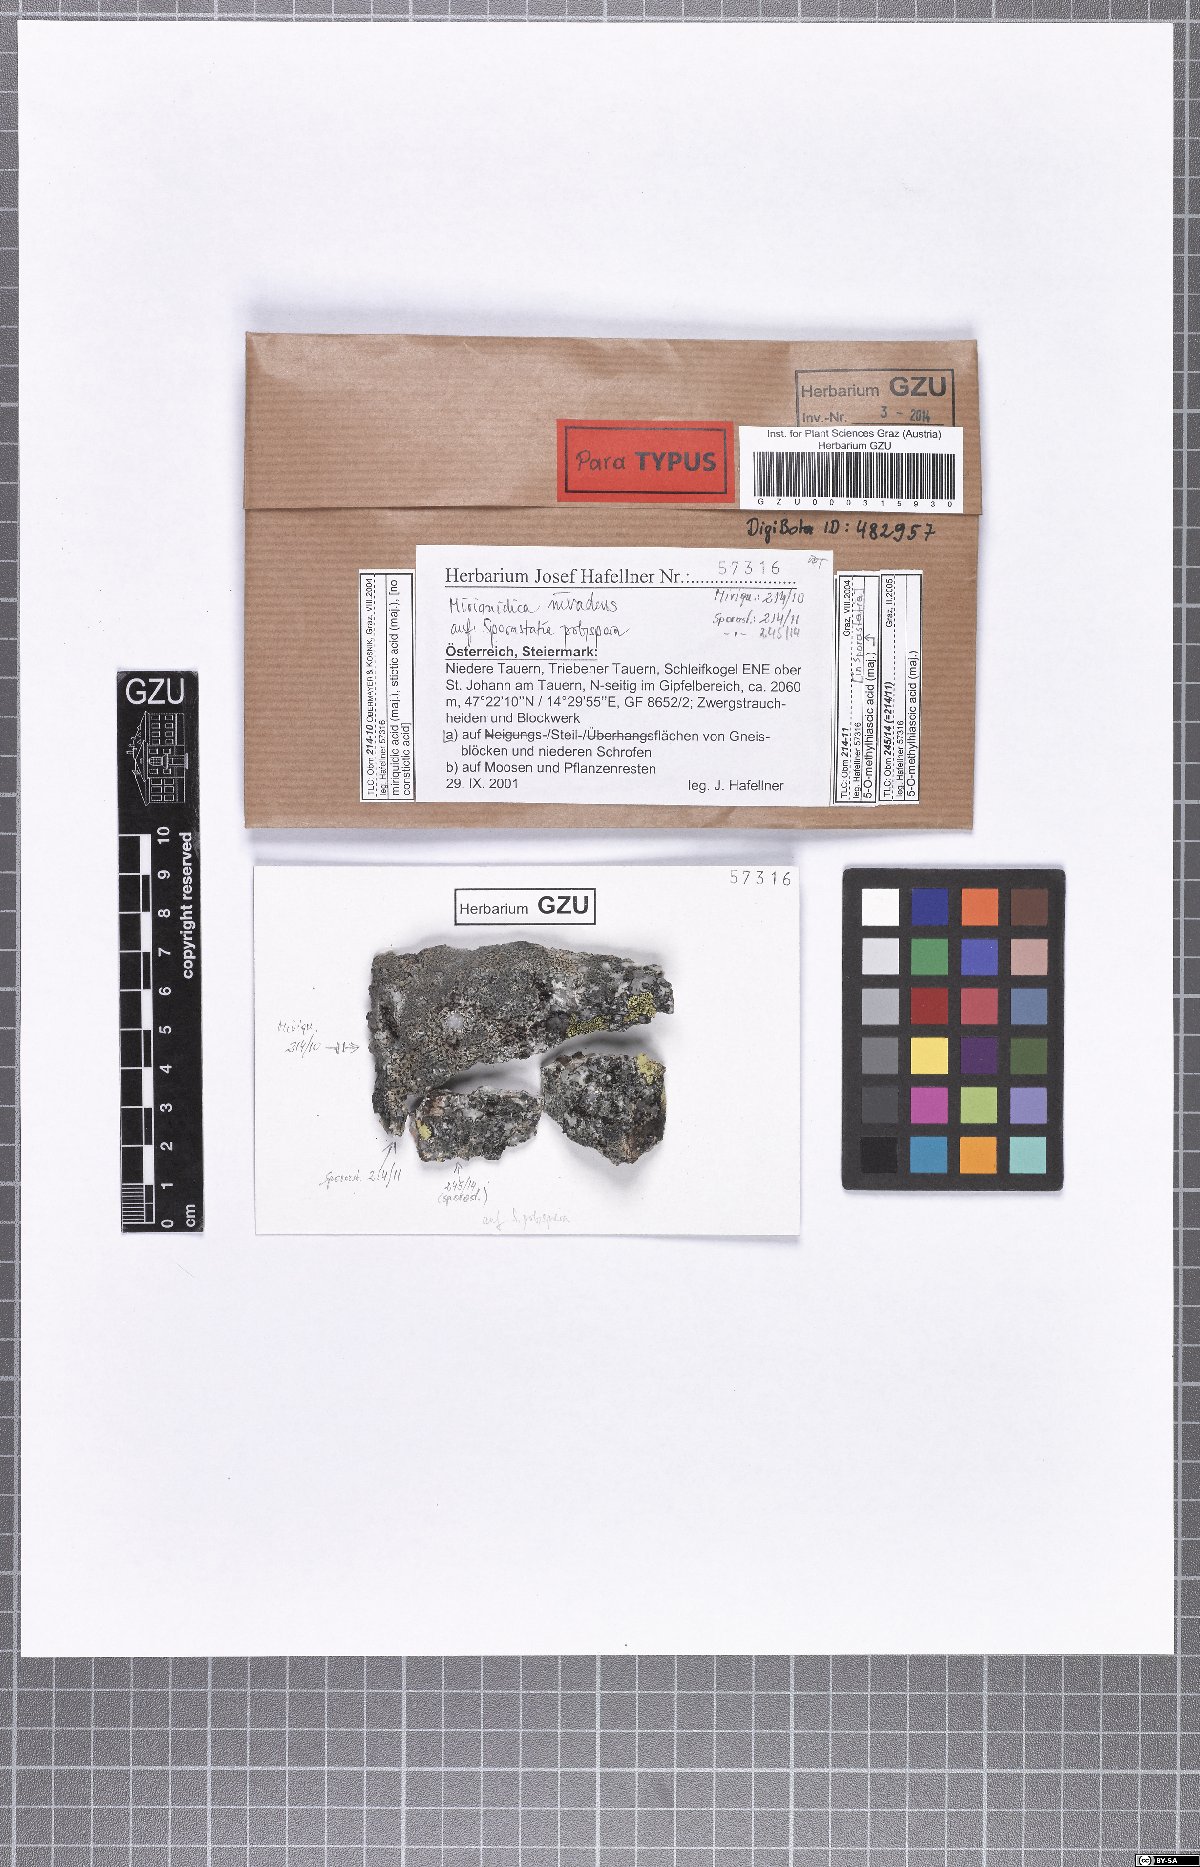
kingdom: Fungi
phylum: Ascomycota
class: Lecanoromycetes
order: Lecanorales
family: Lecanoraceae
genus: Miriquidica
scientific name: Miriquidica invadens
